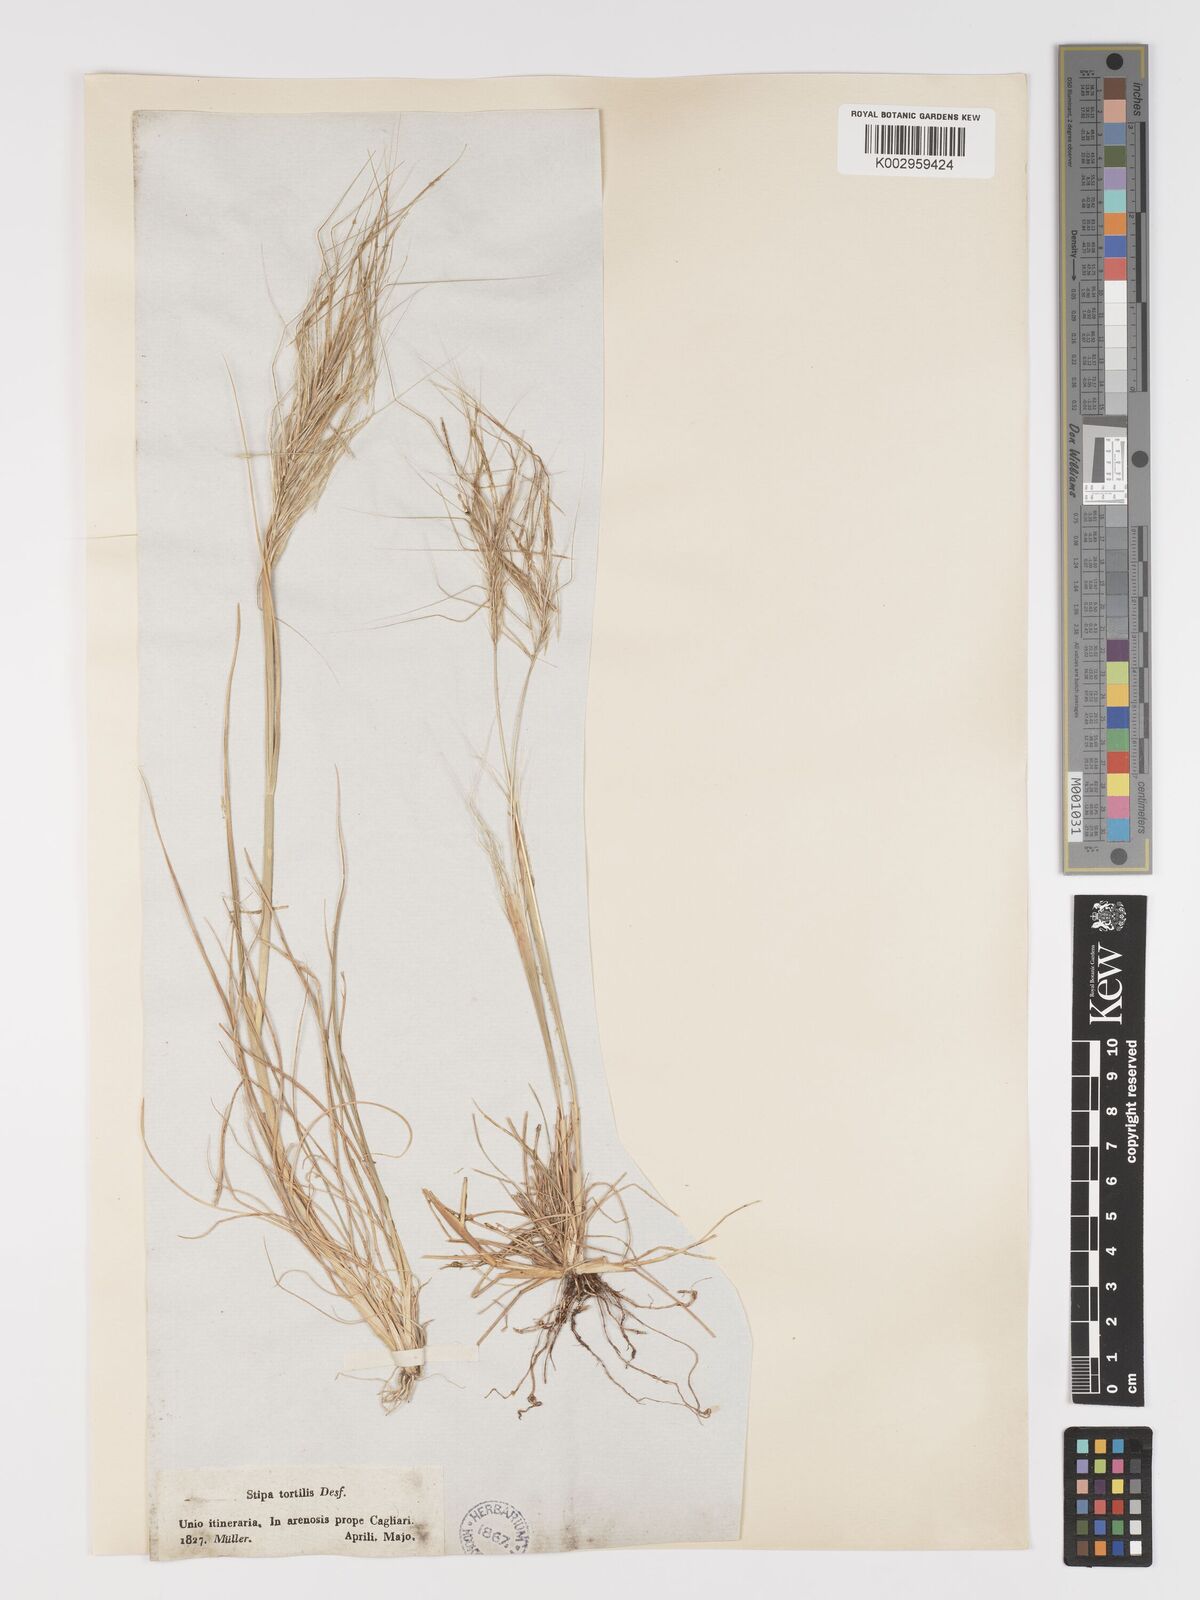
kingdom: Plantae
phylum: Tracheophyta
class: Liliopsida
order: Poales
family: Poaceae
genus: Stipa
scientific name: Stipa
